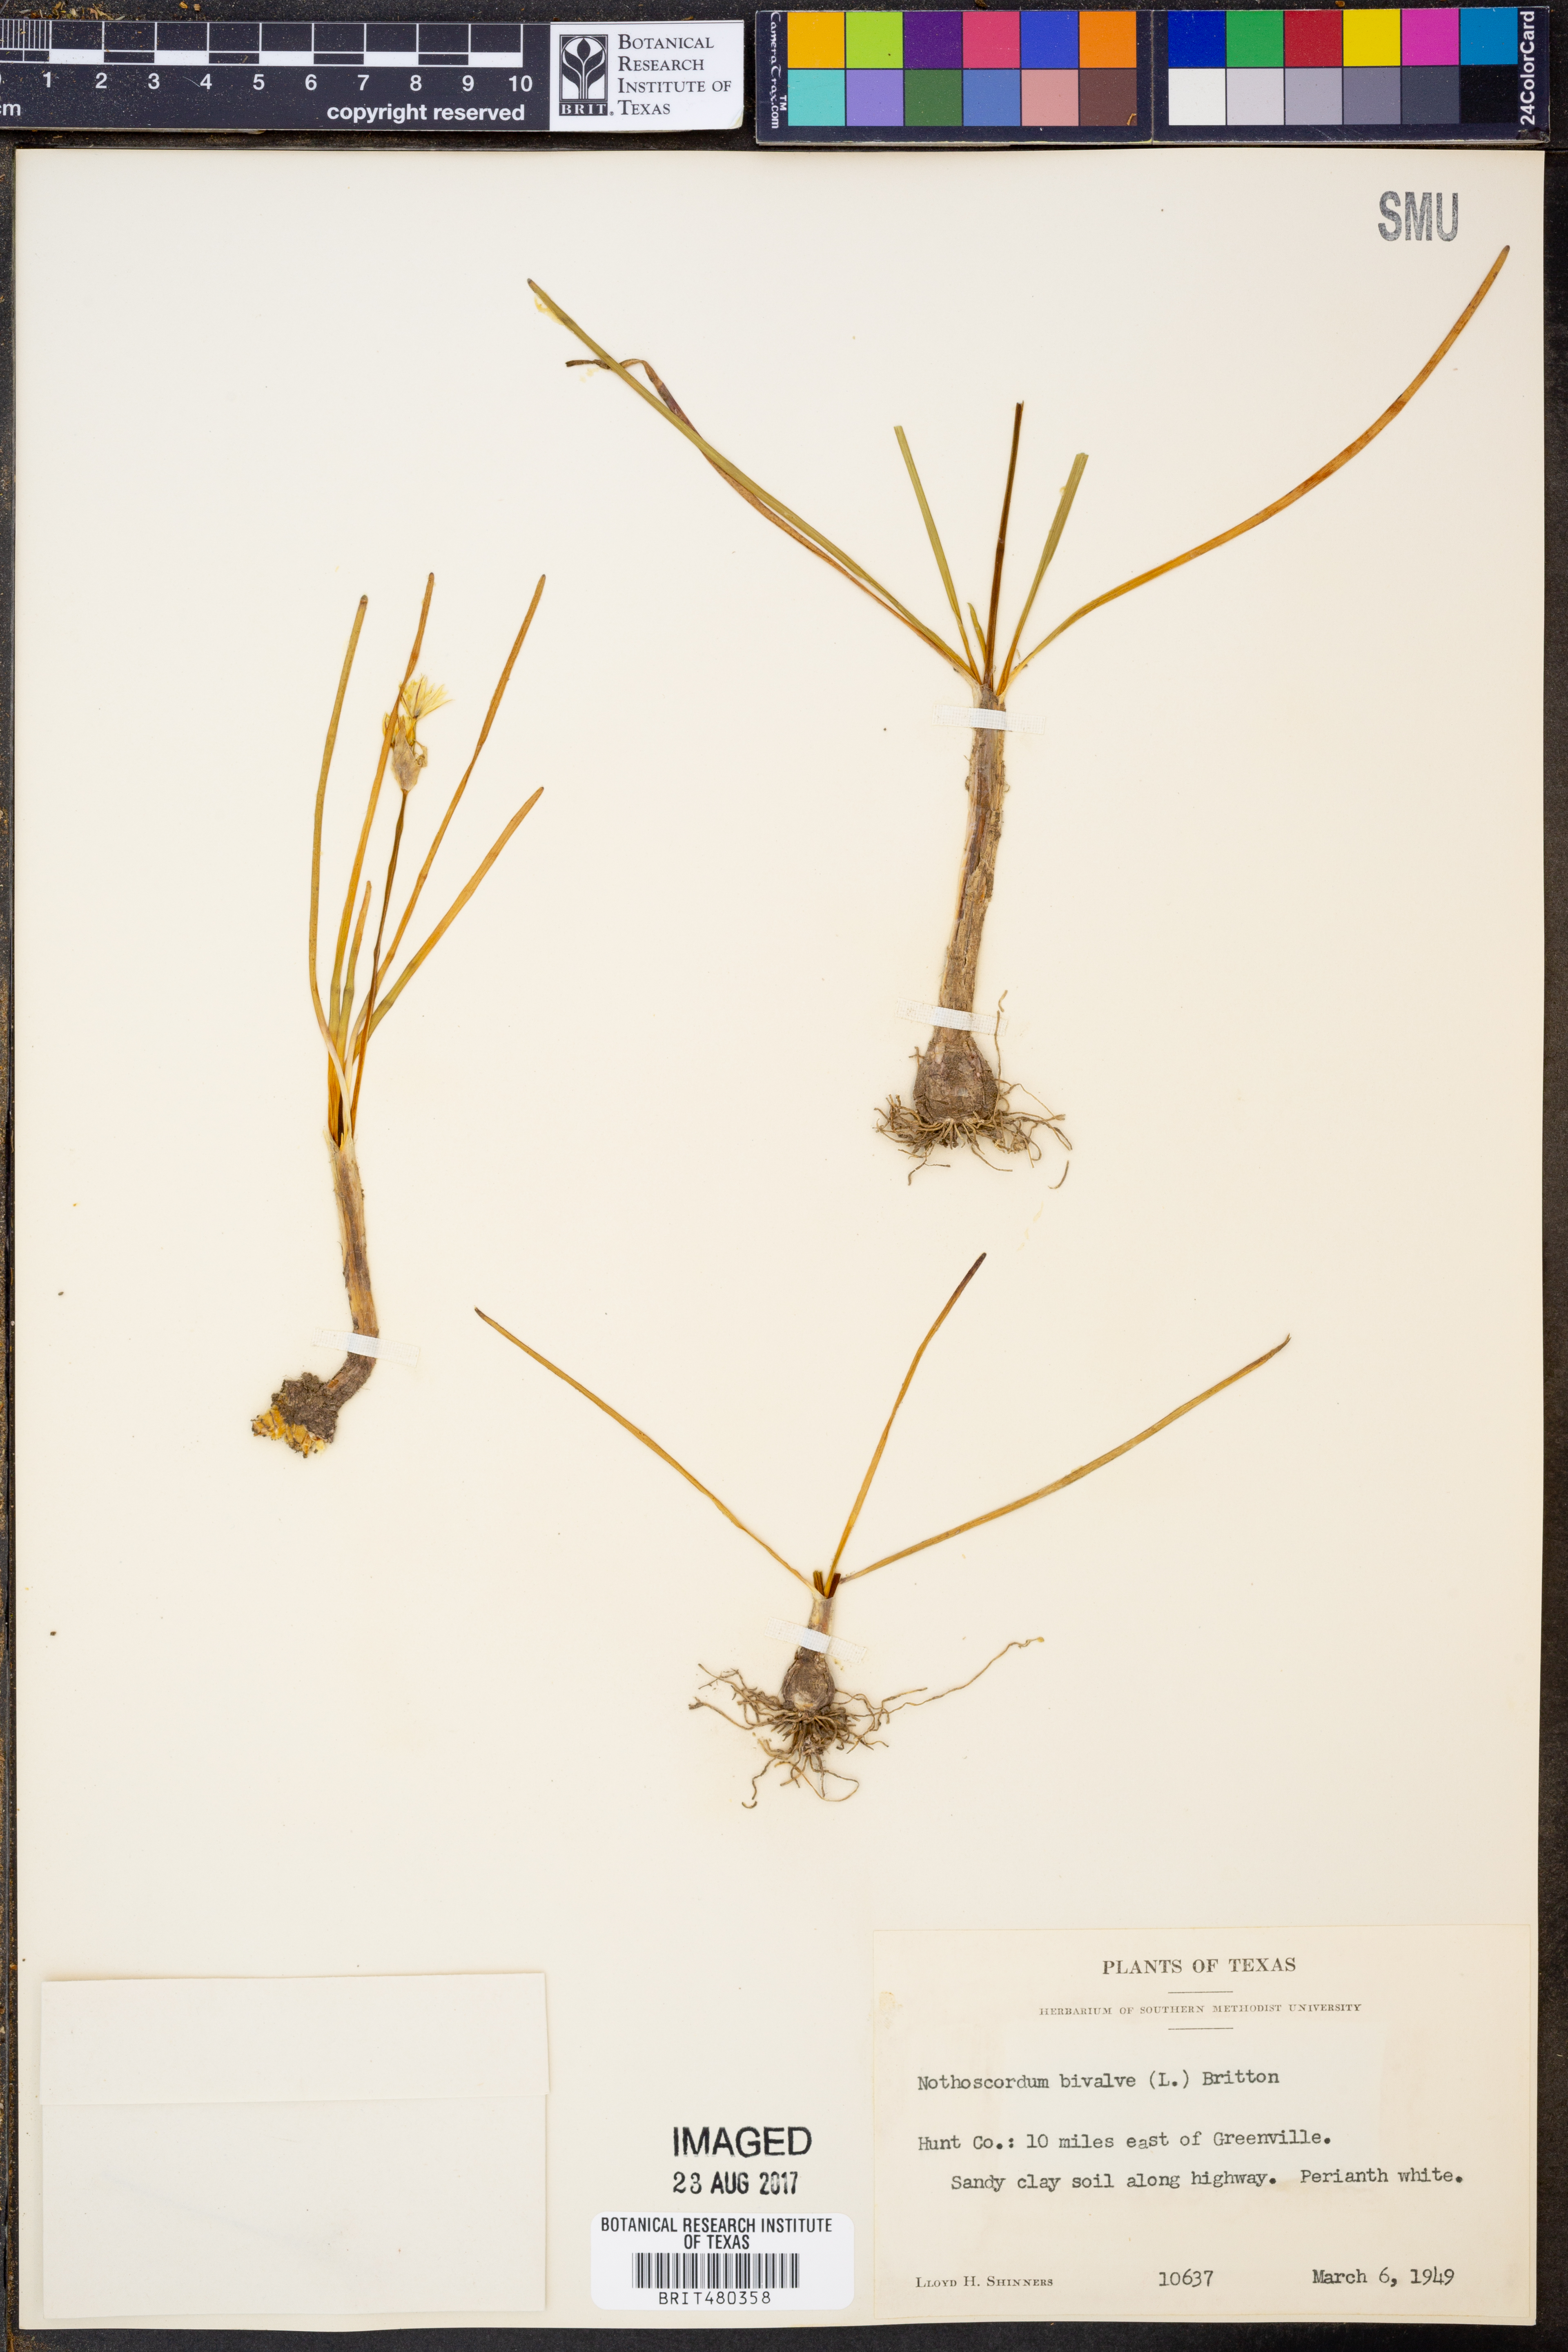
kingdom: Plantae
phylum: Tracheophyta
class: Liliopsida
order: Asparagales
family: Amaryllidaceae
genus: Nothoscordum
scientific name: Nothoscordum bivalve
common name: Crow-poison
